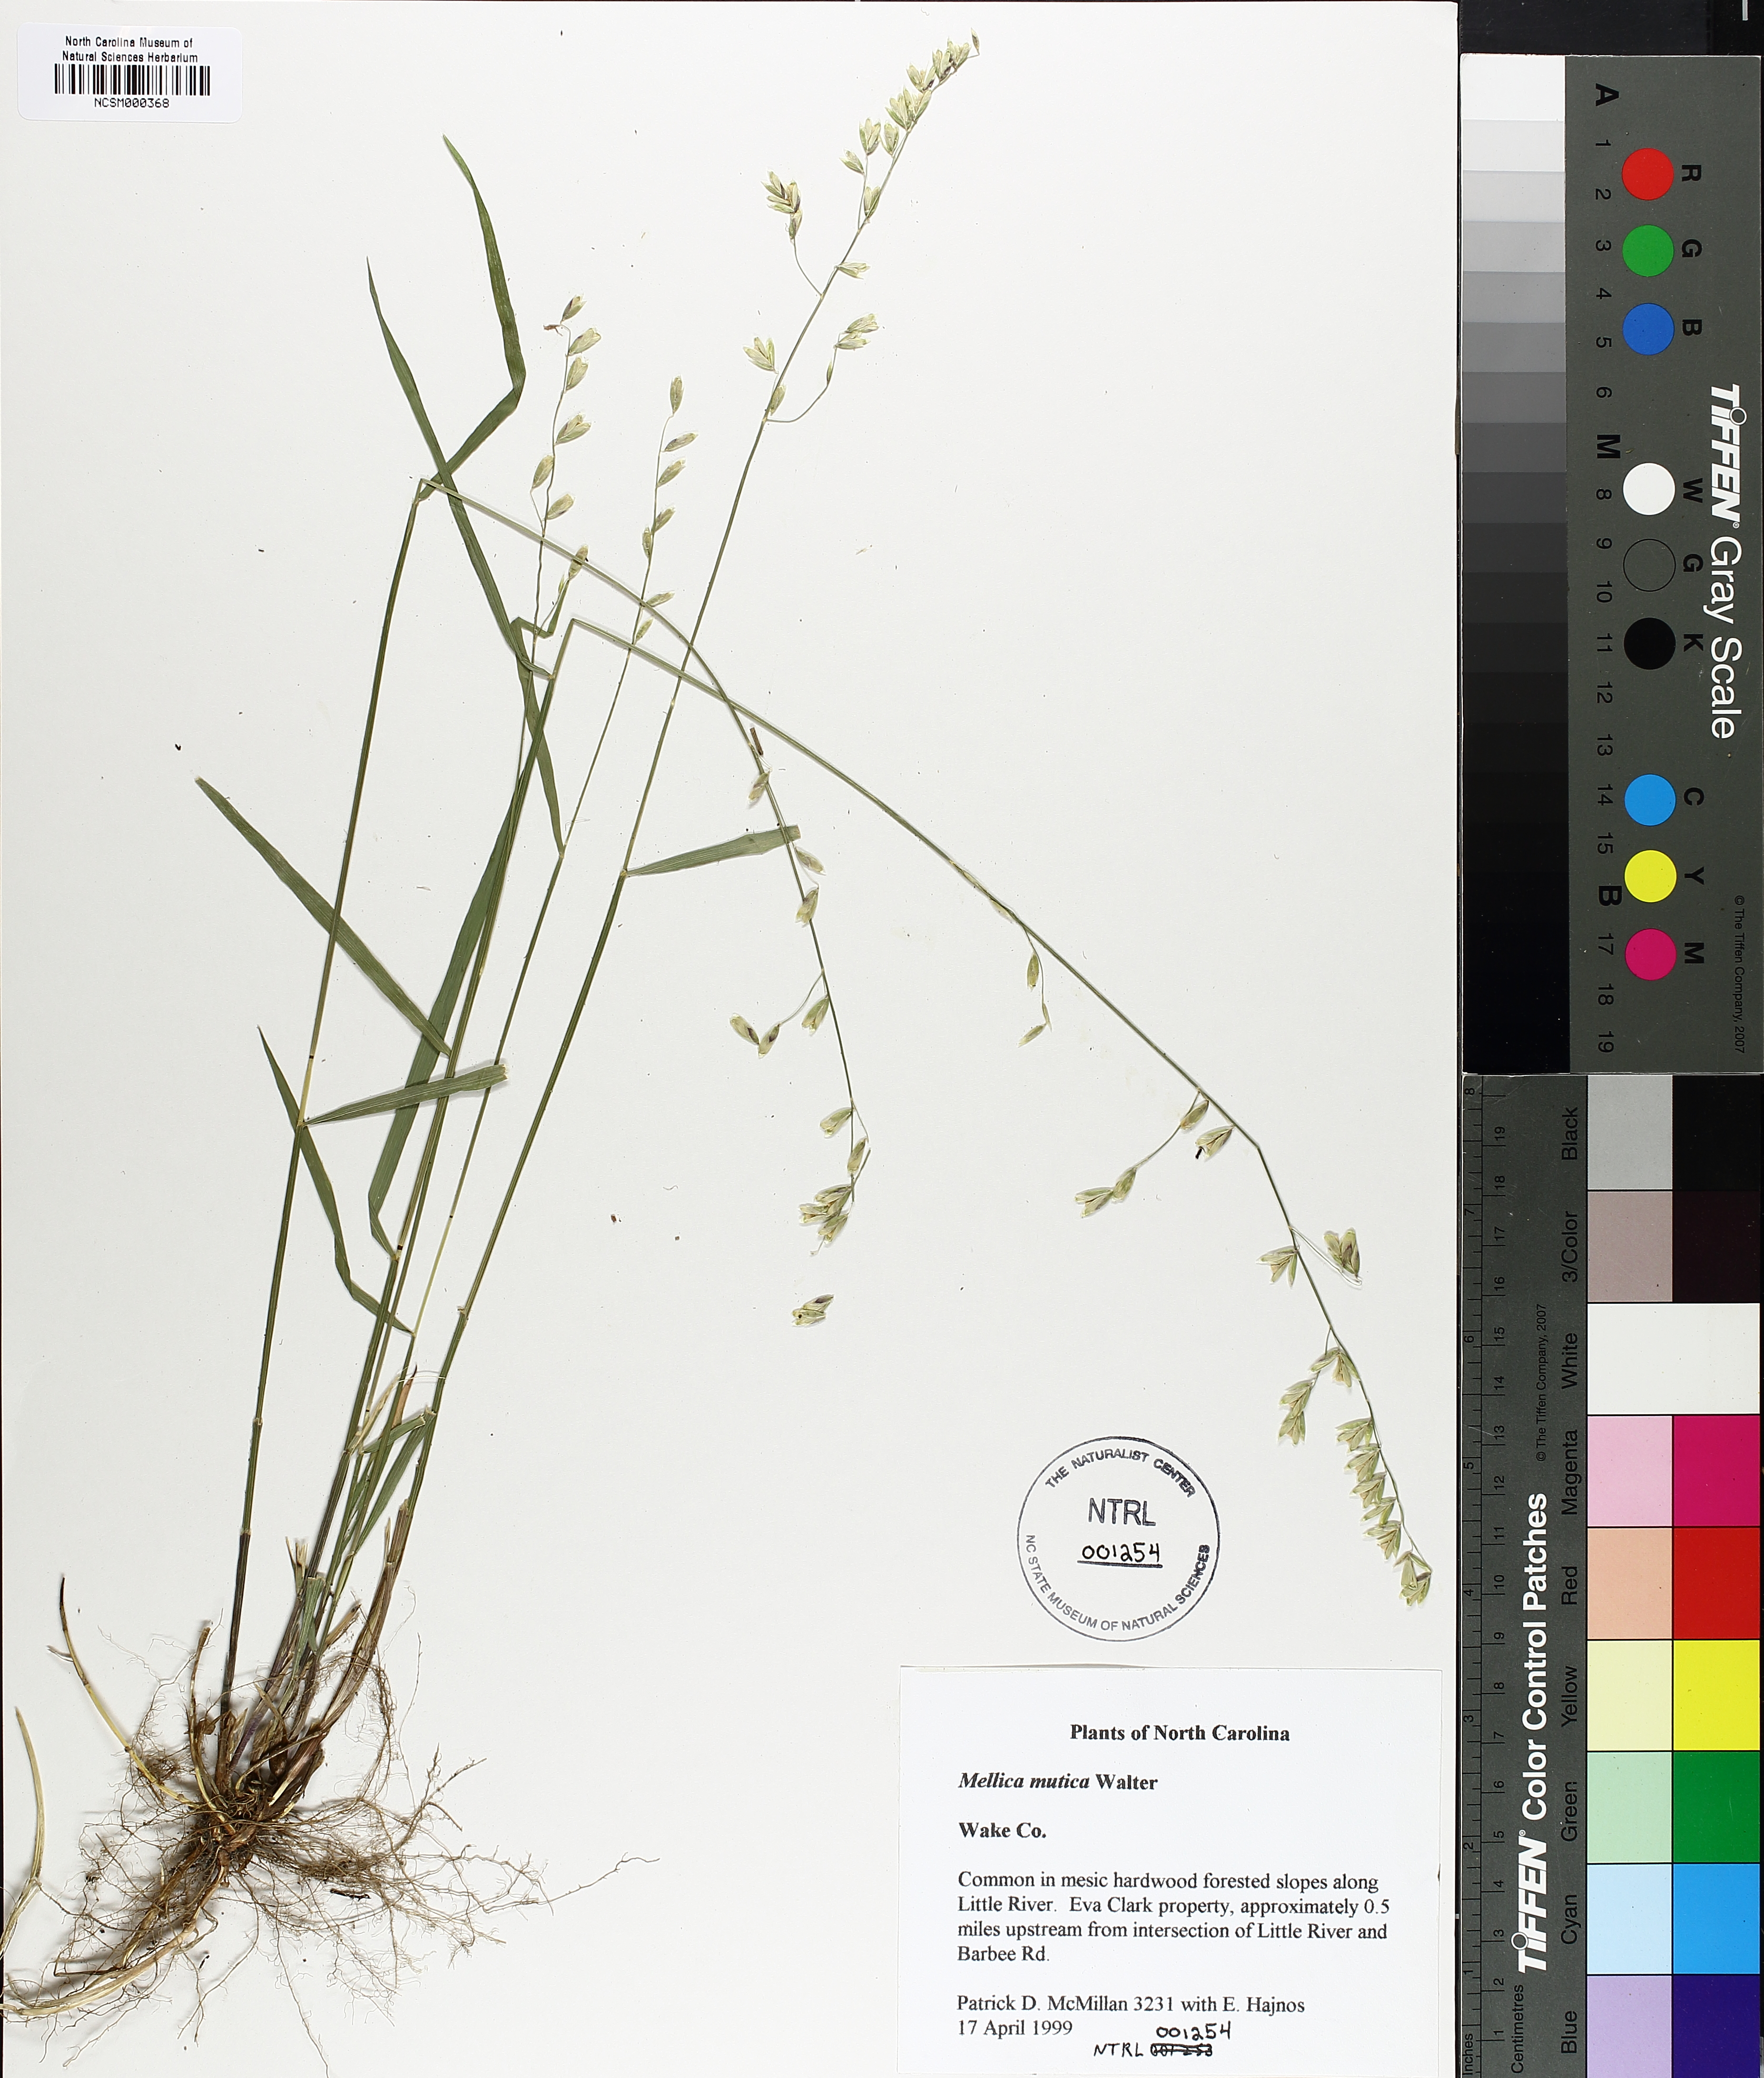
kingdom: Plantae
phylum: Tracheophyta
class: Liliopsida
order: Poales
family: Poaceae
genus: Melica
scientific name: Melica mutica
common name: Two-flower melic
